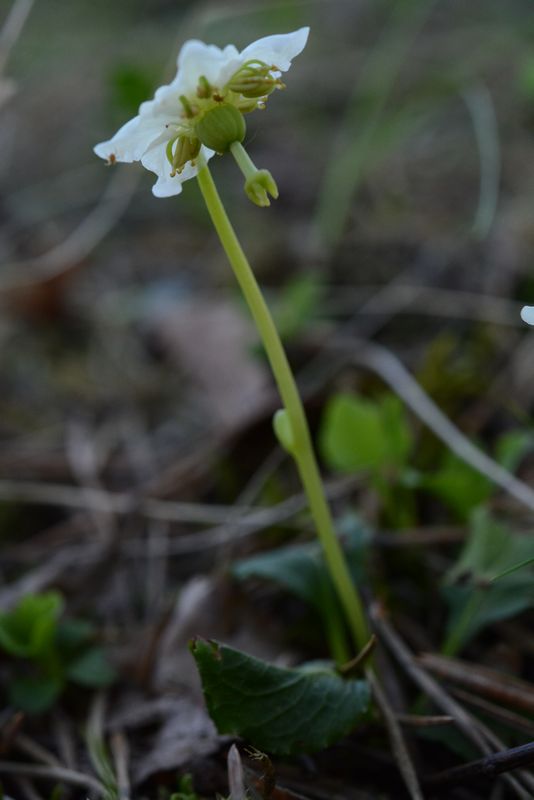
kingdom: Plantae
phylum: Tracheophyta
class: Magnoliopsida
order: Ericales
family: Ericaceae
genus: Moneses
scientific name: Moneses uniflora
